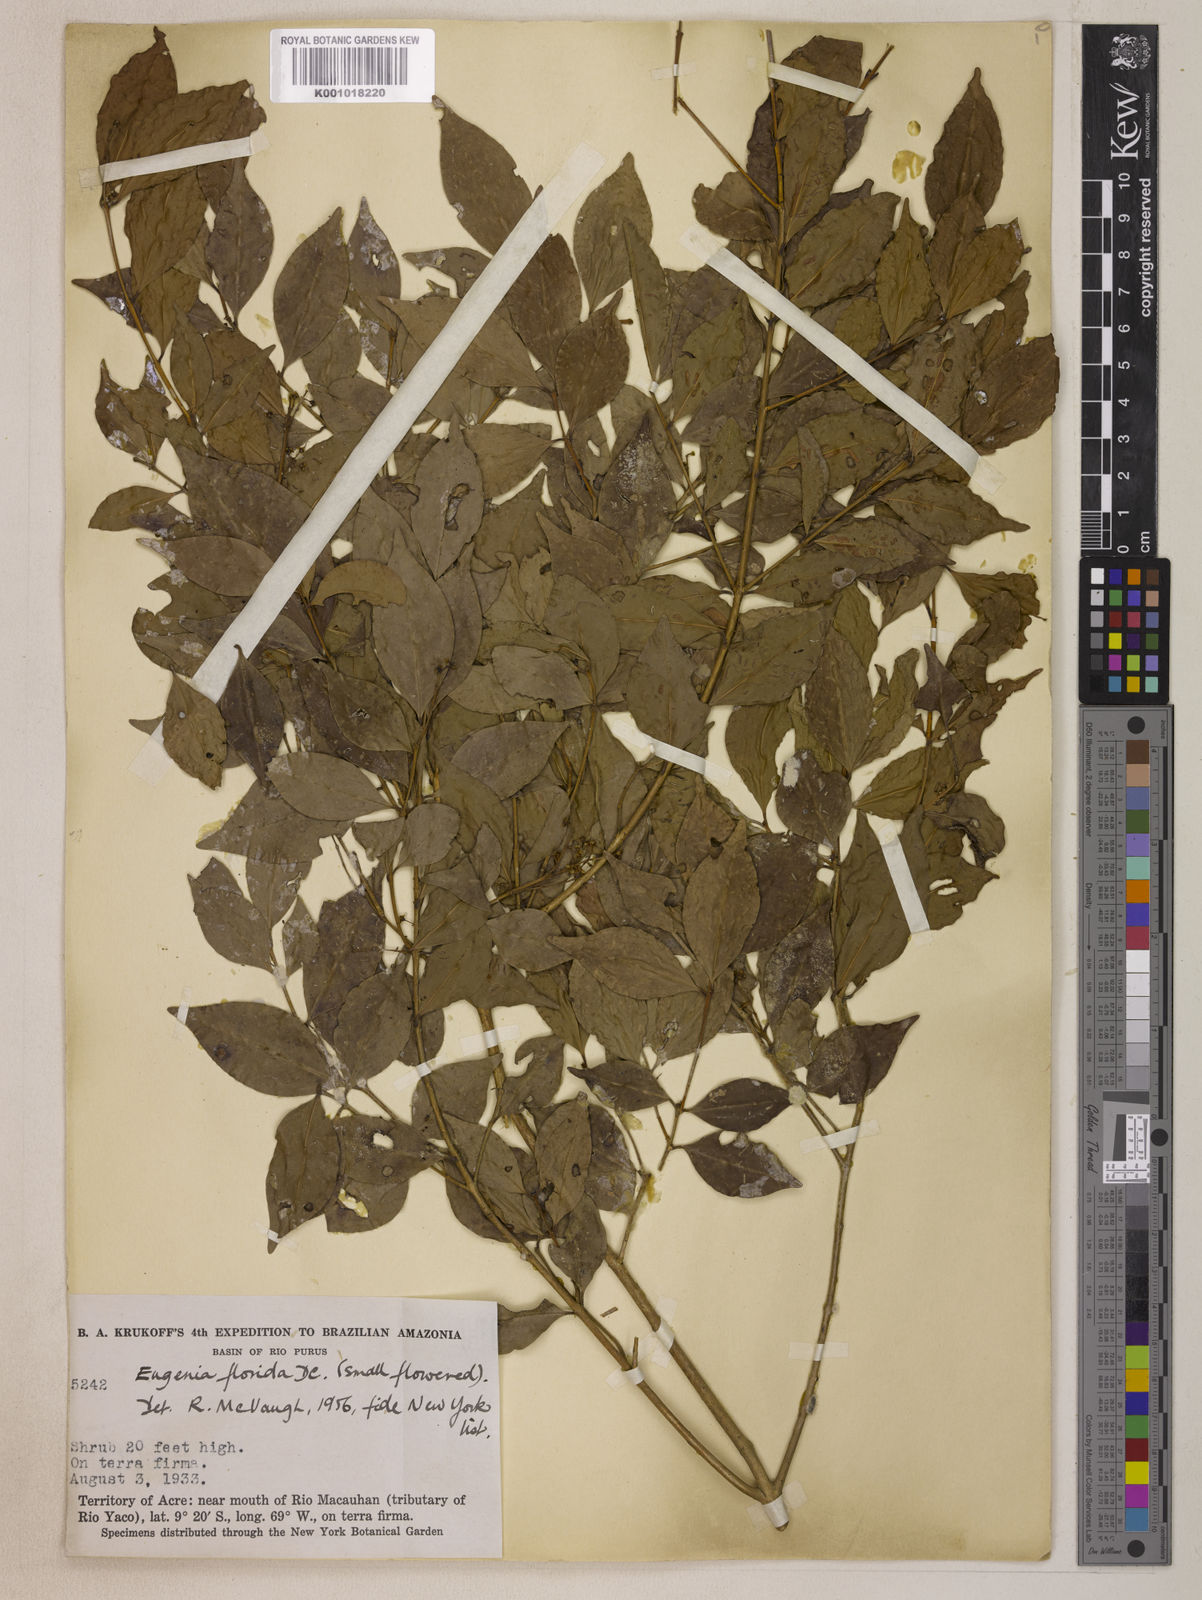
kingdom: Plantae
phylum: Tracheophyta
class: Magnoliopsida
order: Myrtales
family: Myrtaceae
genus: Eugenia
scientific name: Eugenia florida
